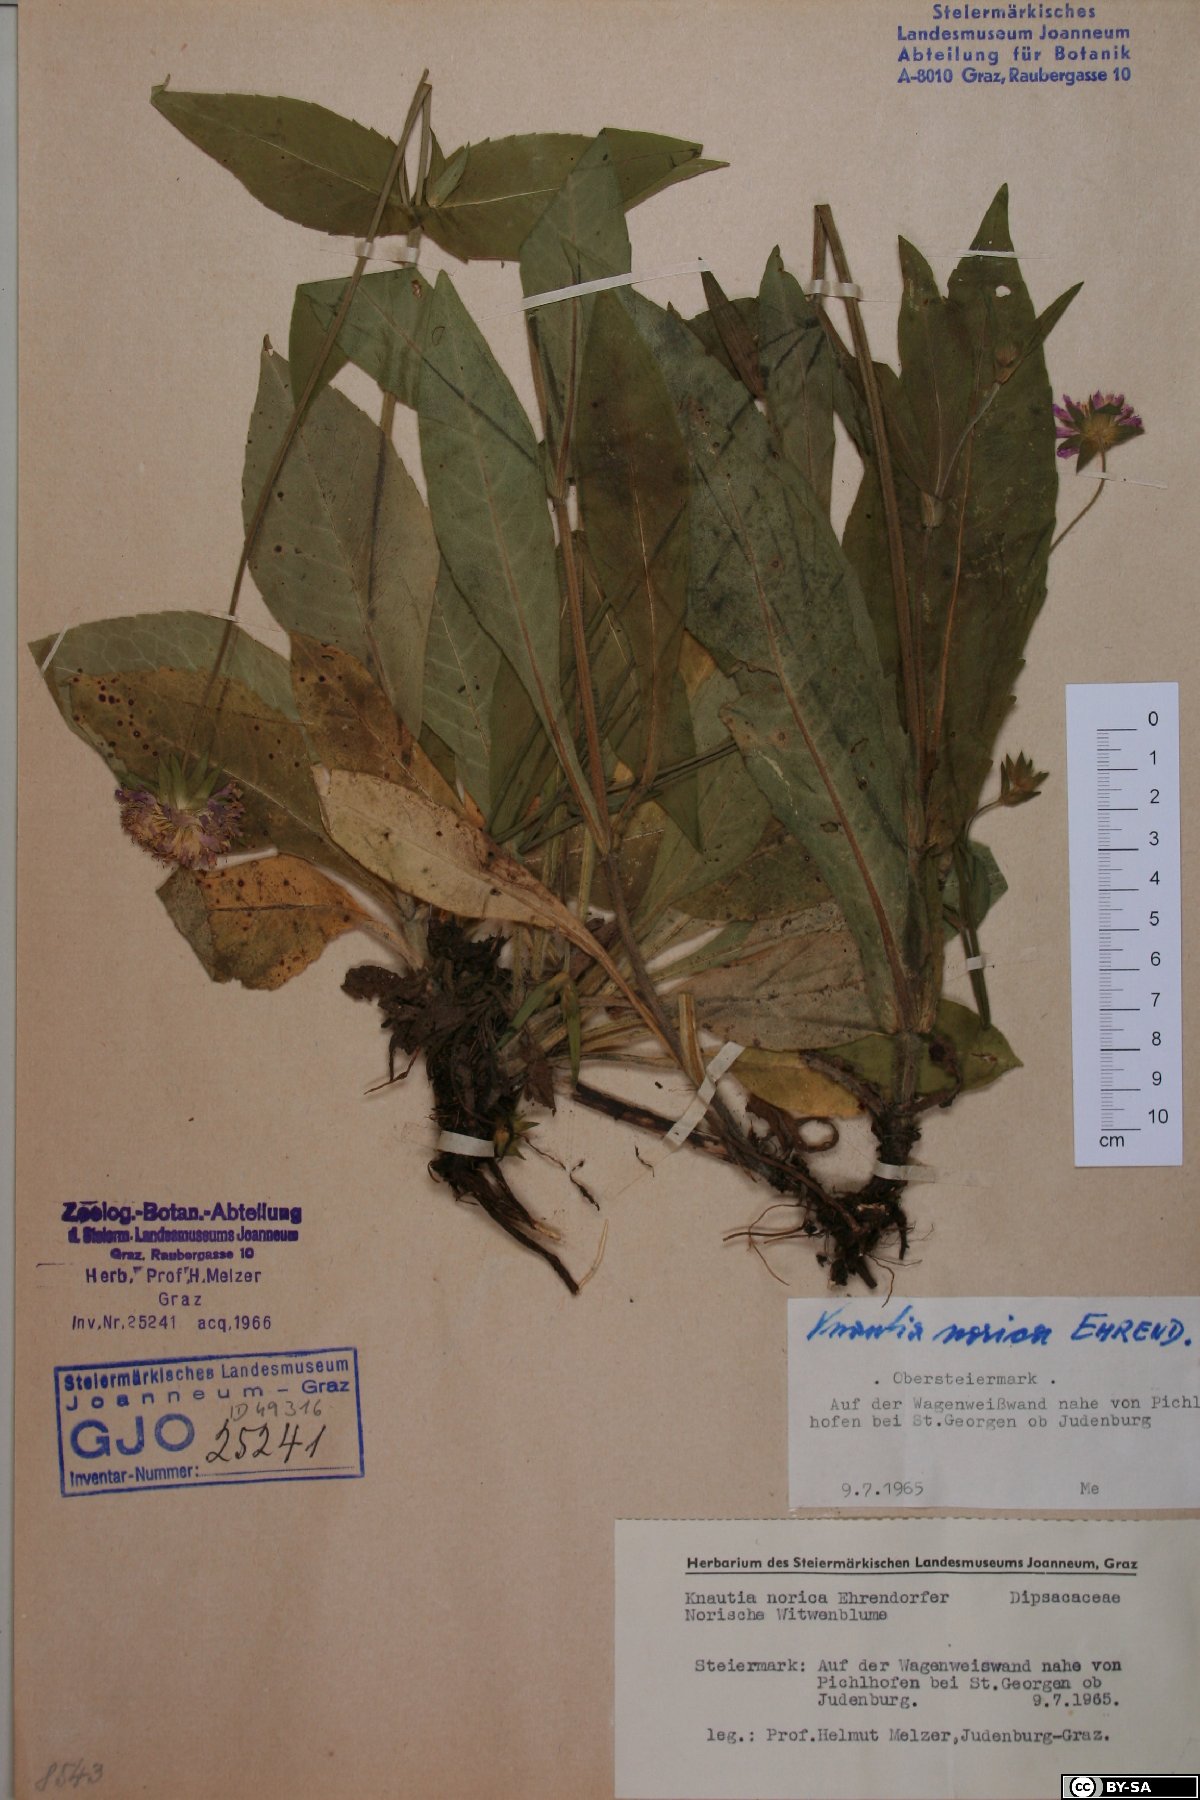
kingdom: Plantae
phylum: Tracheophyta
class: Magnoliopsida
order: Dipsacales
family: Caprifoliaceae
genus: Knautia
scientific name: Knautia norica
